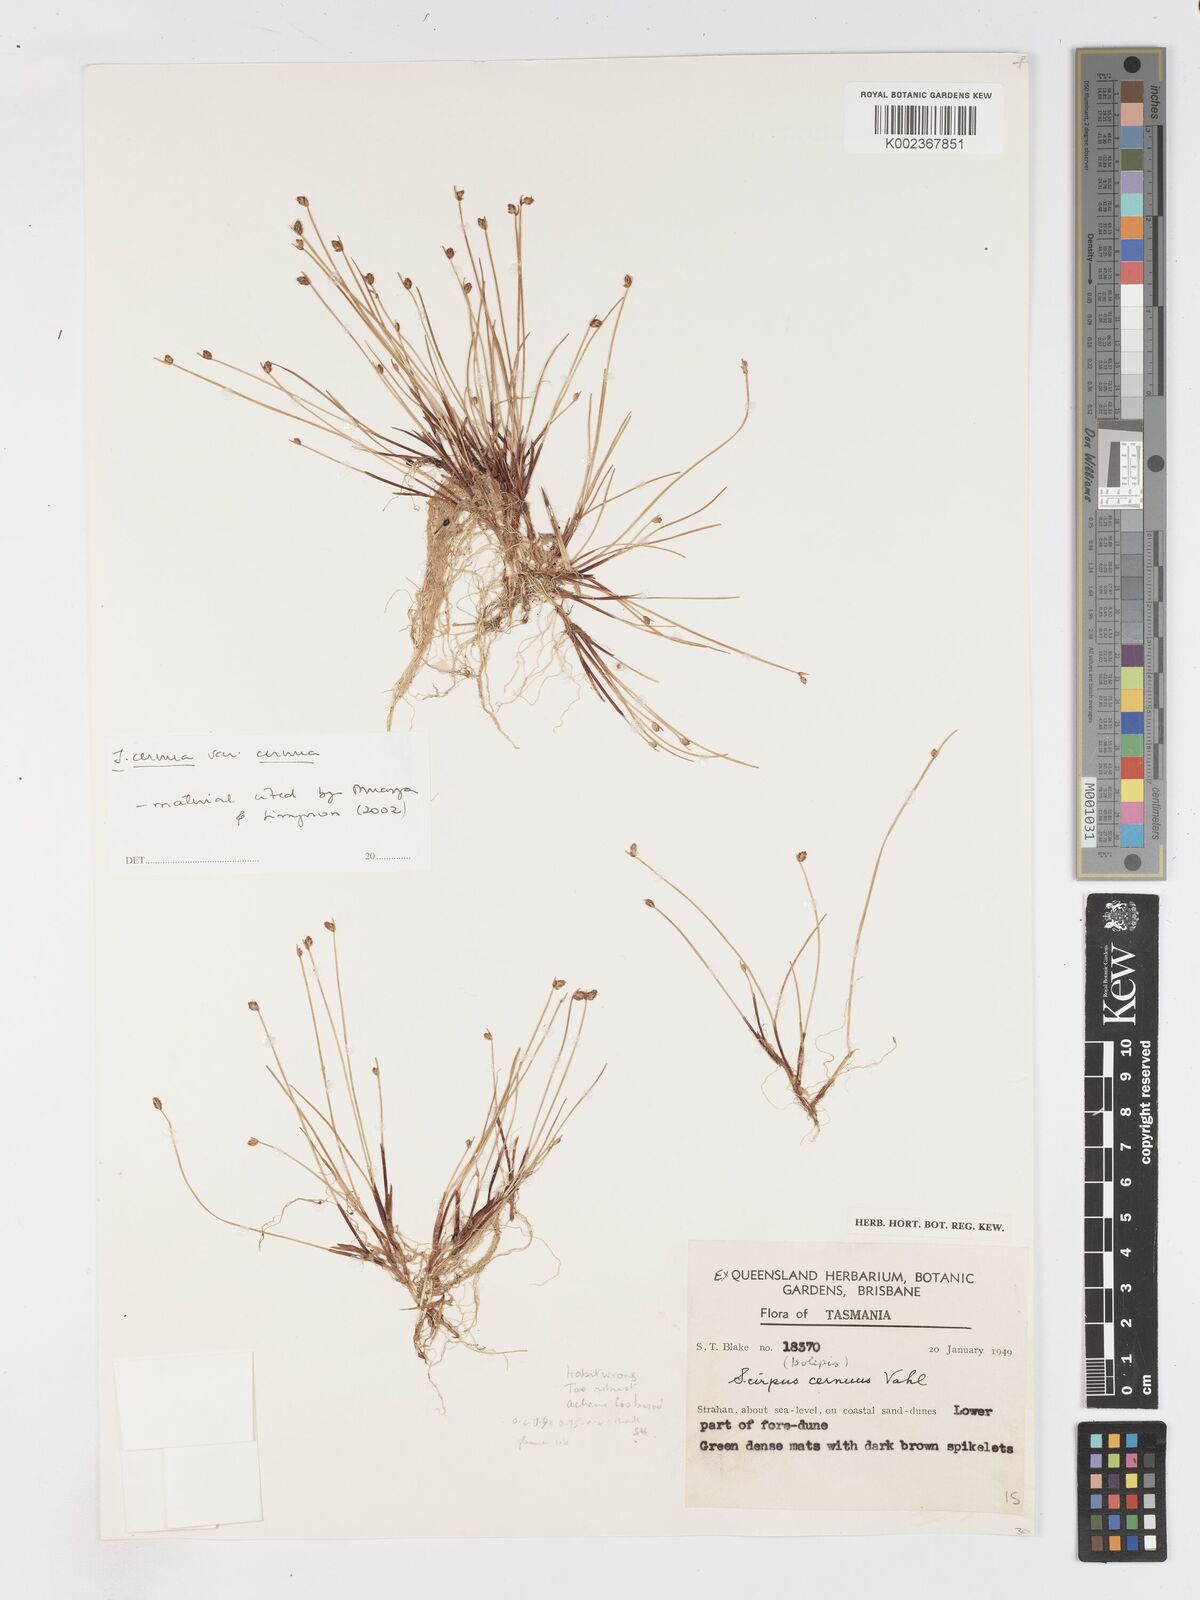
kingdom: Plantae
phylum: Tracheophyta
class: Liliopsida
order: Poales
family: Cyperaceae
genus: Isolepis
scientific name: Isolepis cernua
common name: Slender club-rush
